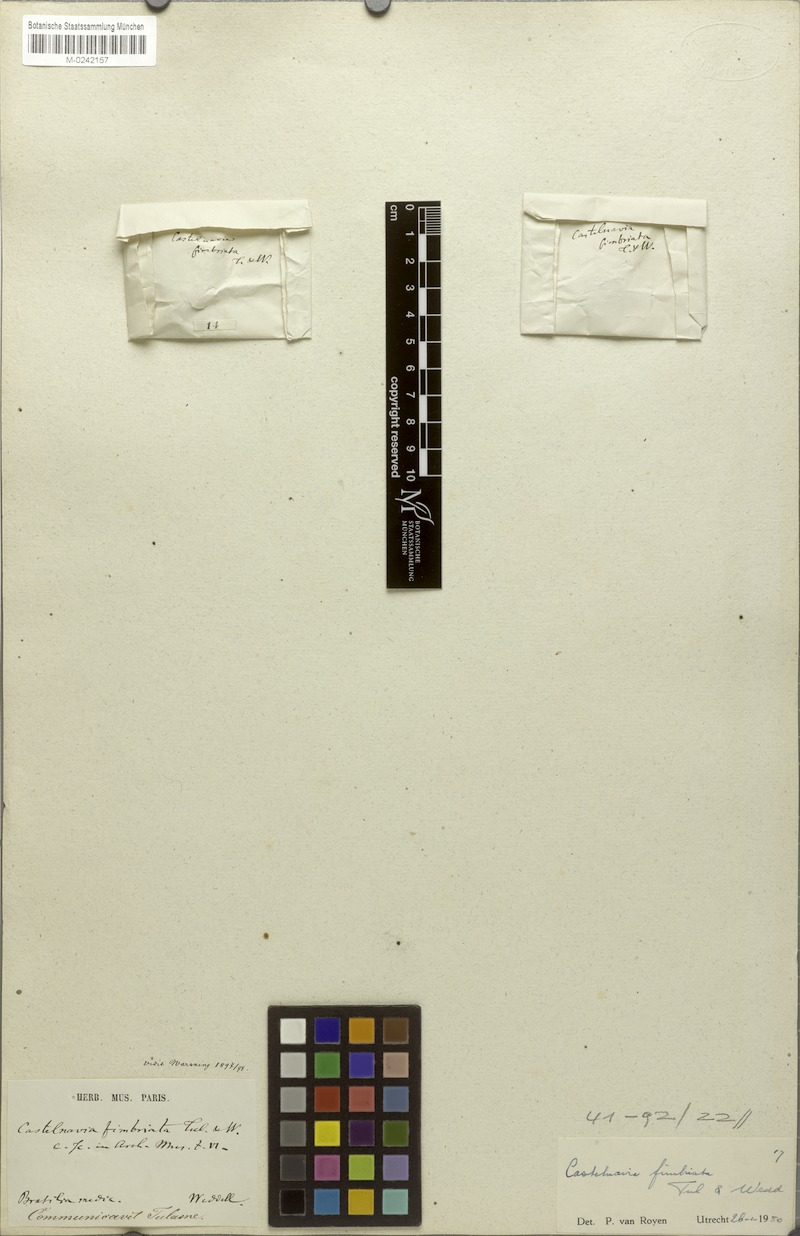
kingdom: Plantae
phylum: Tracheophyta
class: Magnoliopsida
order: Malpighiales
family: Podostemaceae
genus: Castelnavia
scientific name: Castelnavia multipartita
